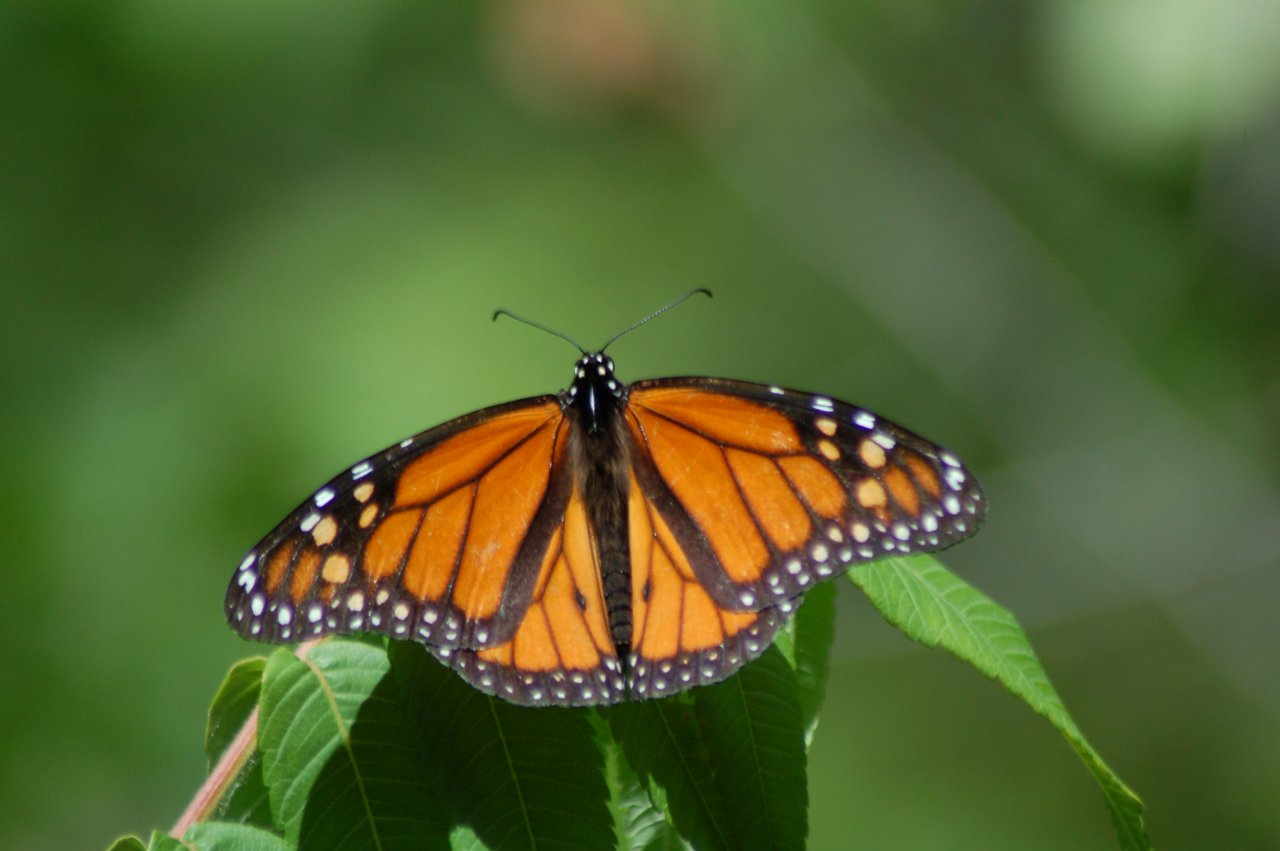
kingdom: Animalia
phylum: Arthropoda
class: Insecta
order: Lepidoptera
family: Nymphalidae
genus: Danaus
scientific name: Danaus plexippus
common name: Monarch
